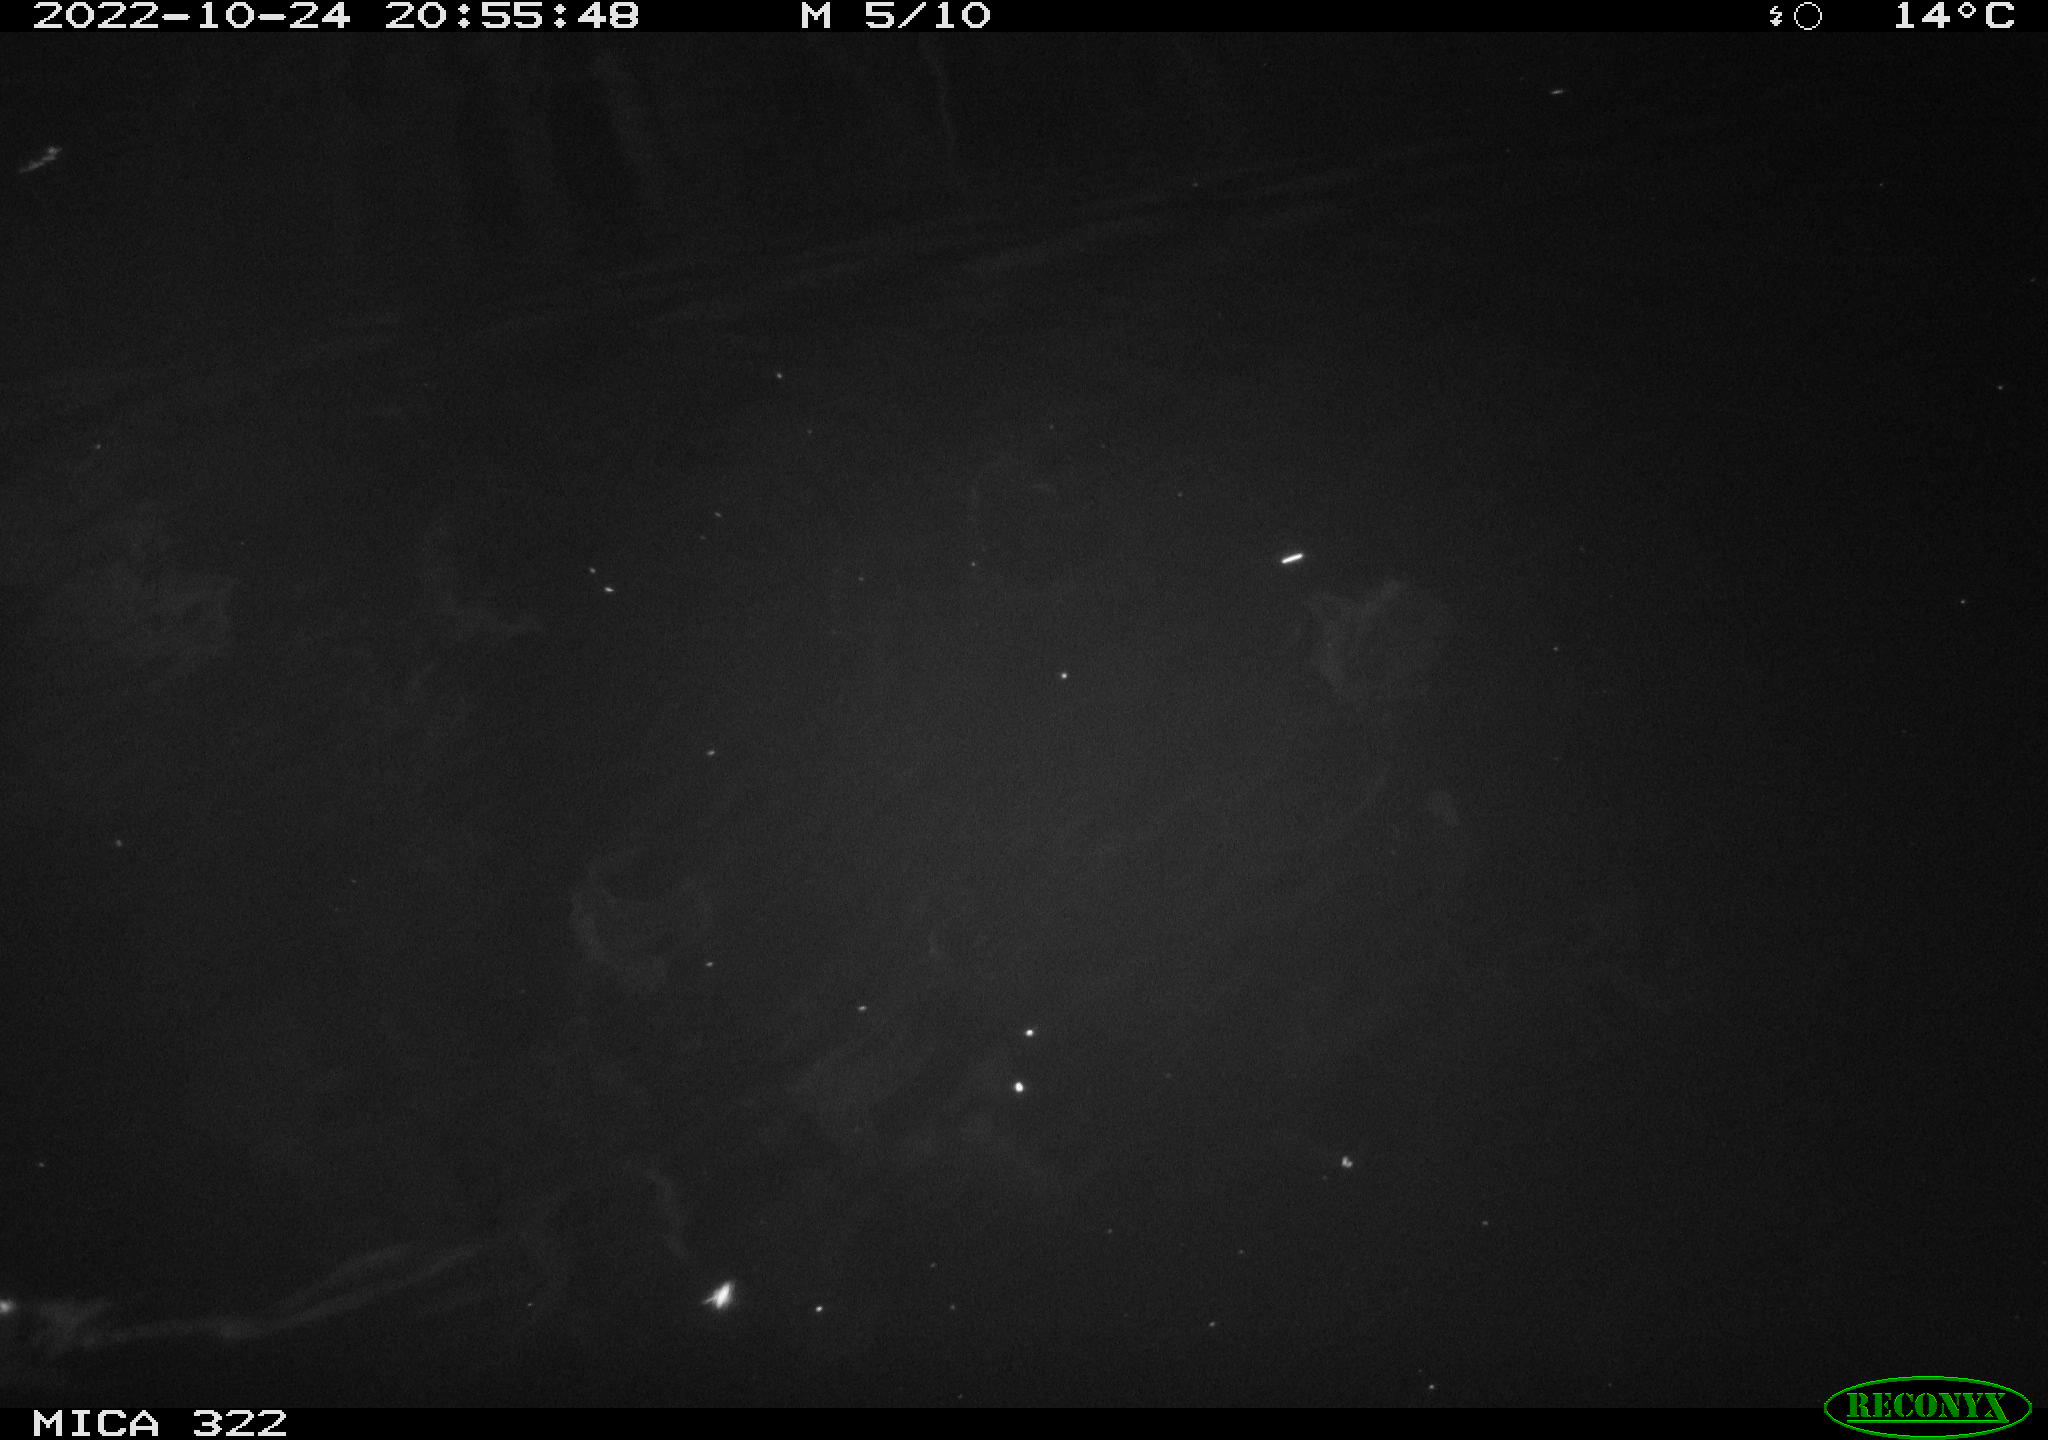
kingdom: Animalia
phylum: Chordata
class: Mammalia
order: Rodentia
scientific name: Rodentia
